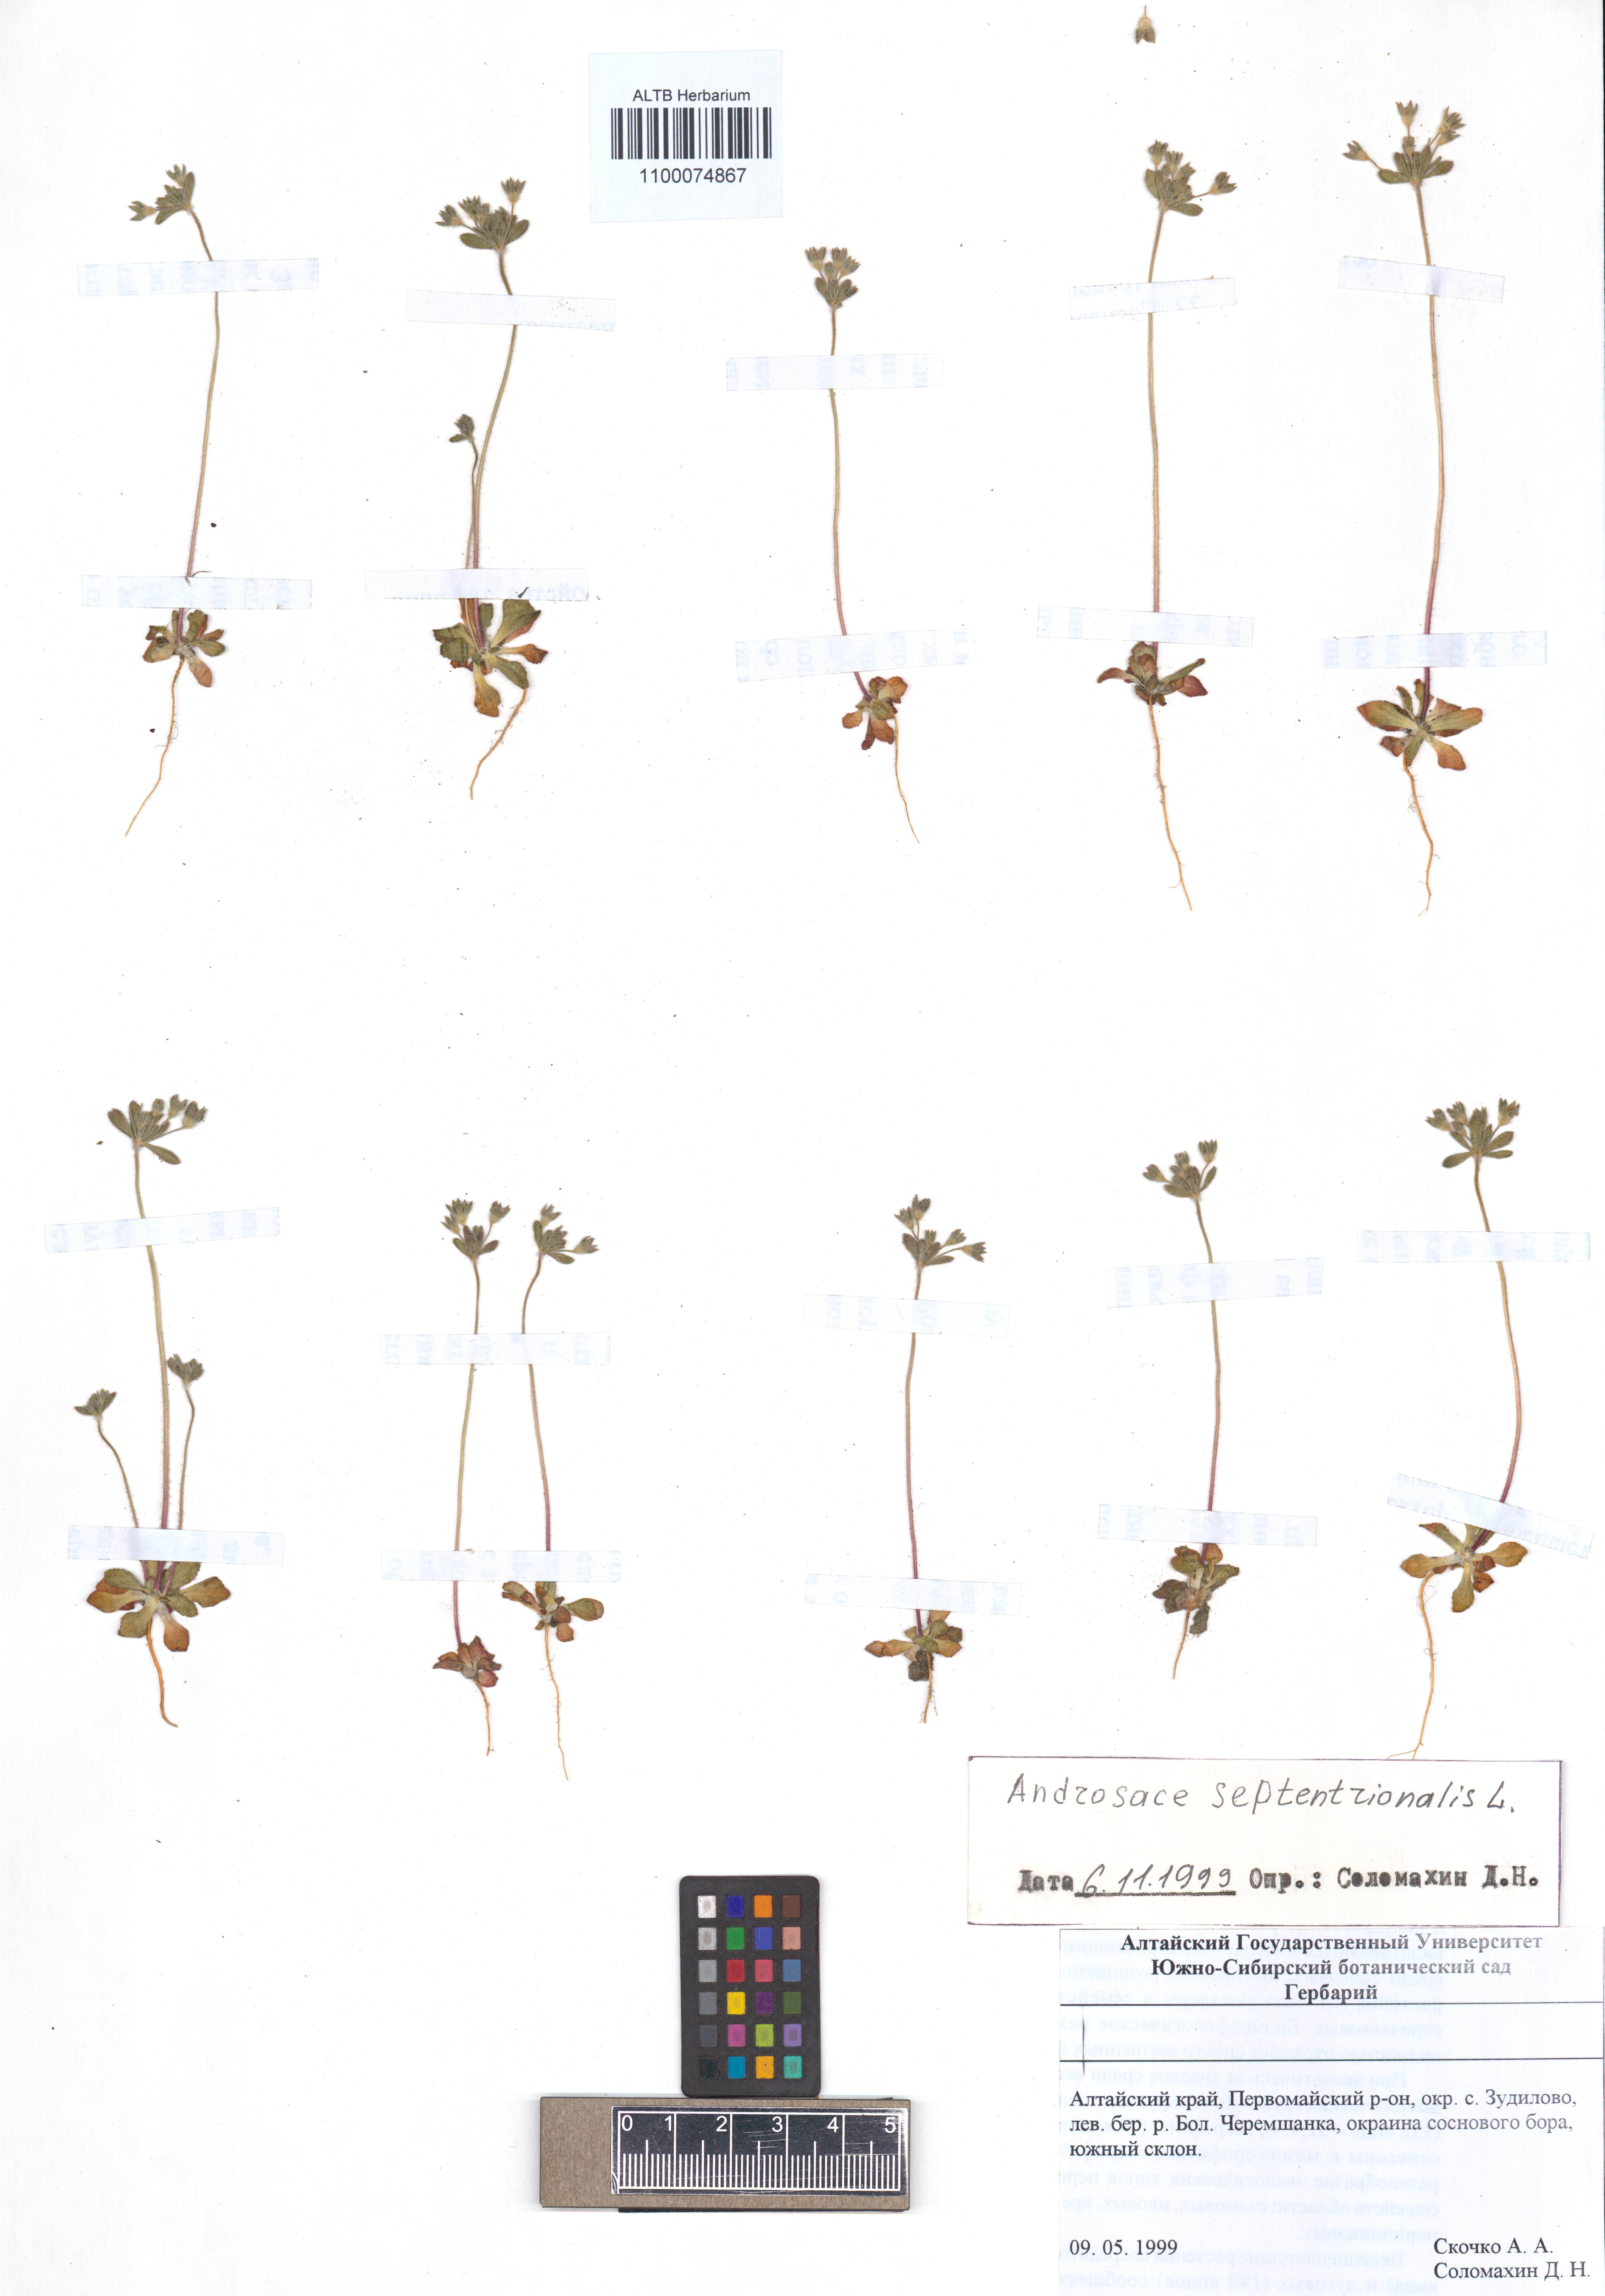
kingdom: Plantae
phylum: Tracheophyta
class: Magnoliopsida
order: Ericales
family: Primulaceae
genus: Androsace
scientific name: Androsace septentrionalis
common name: Hairy northern fairy-candelabra
